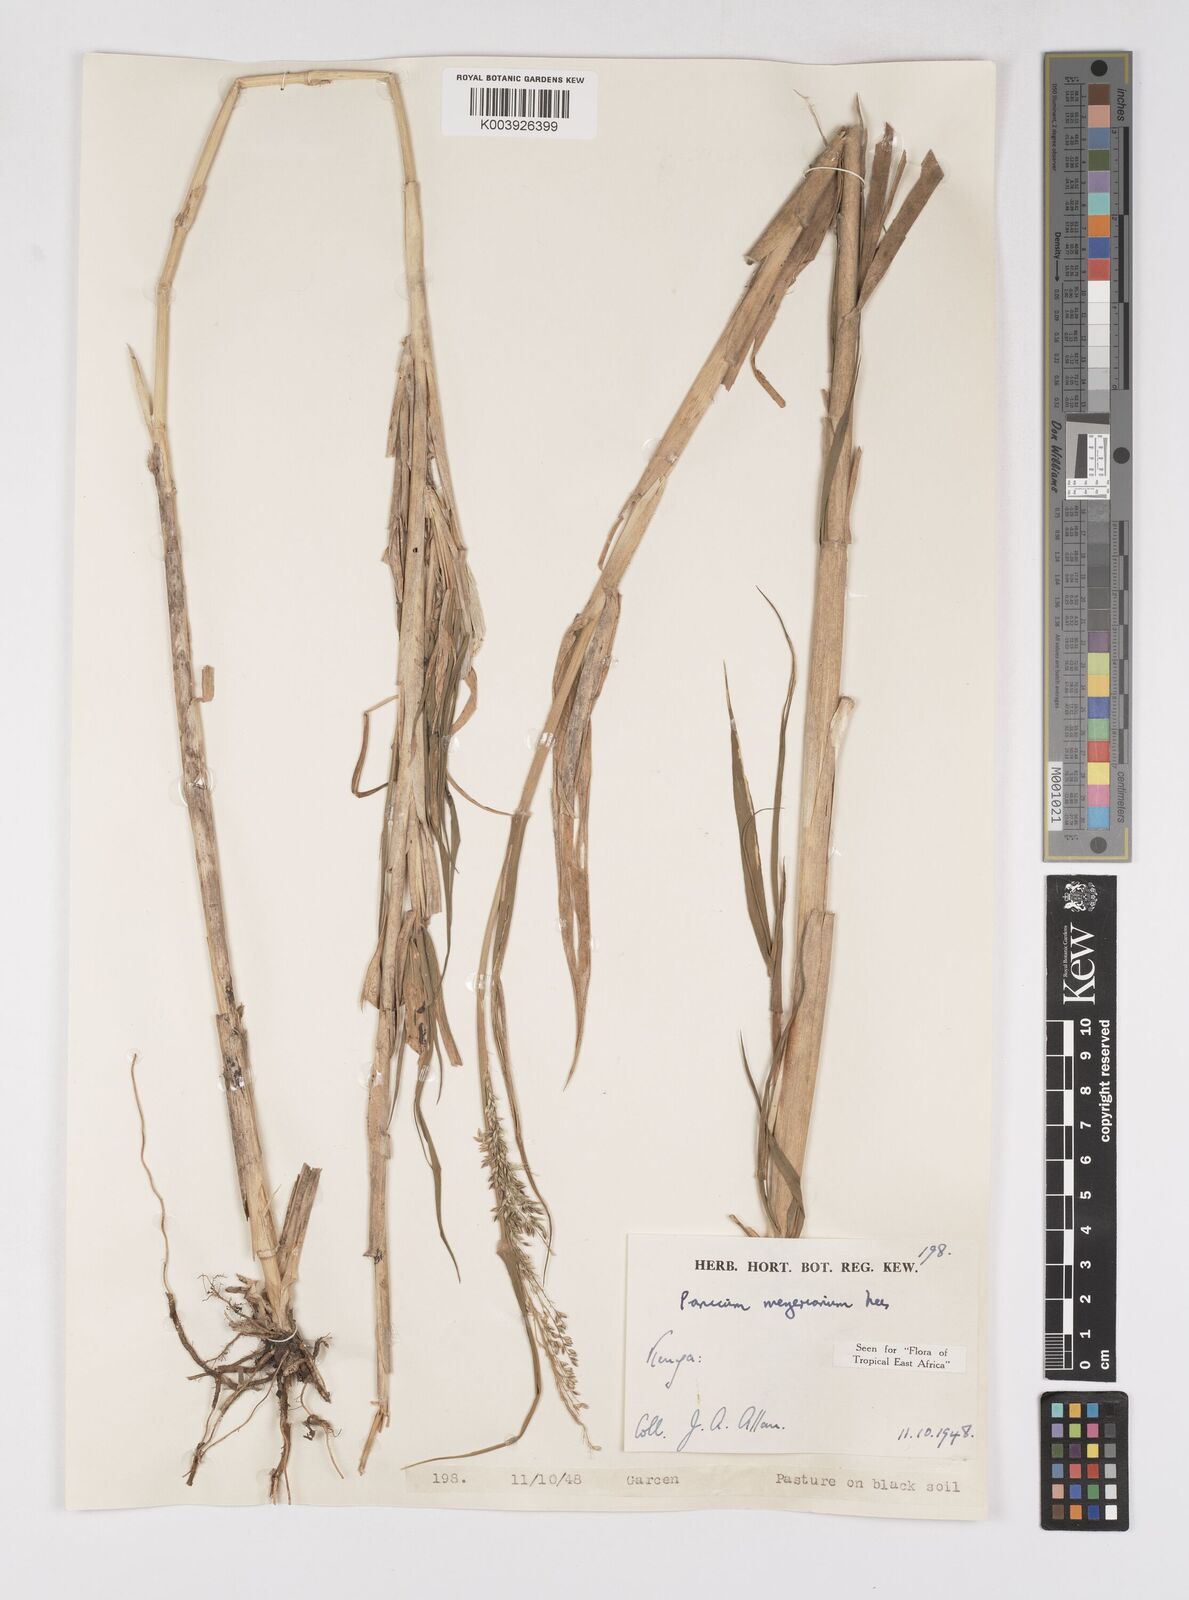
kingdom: Plantae
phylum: Tracheophyta
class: Liliopsida
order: Poales
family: Poaceae
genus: Eriochloa
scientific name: Eriochloa meyeriana
